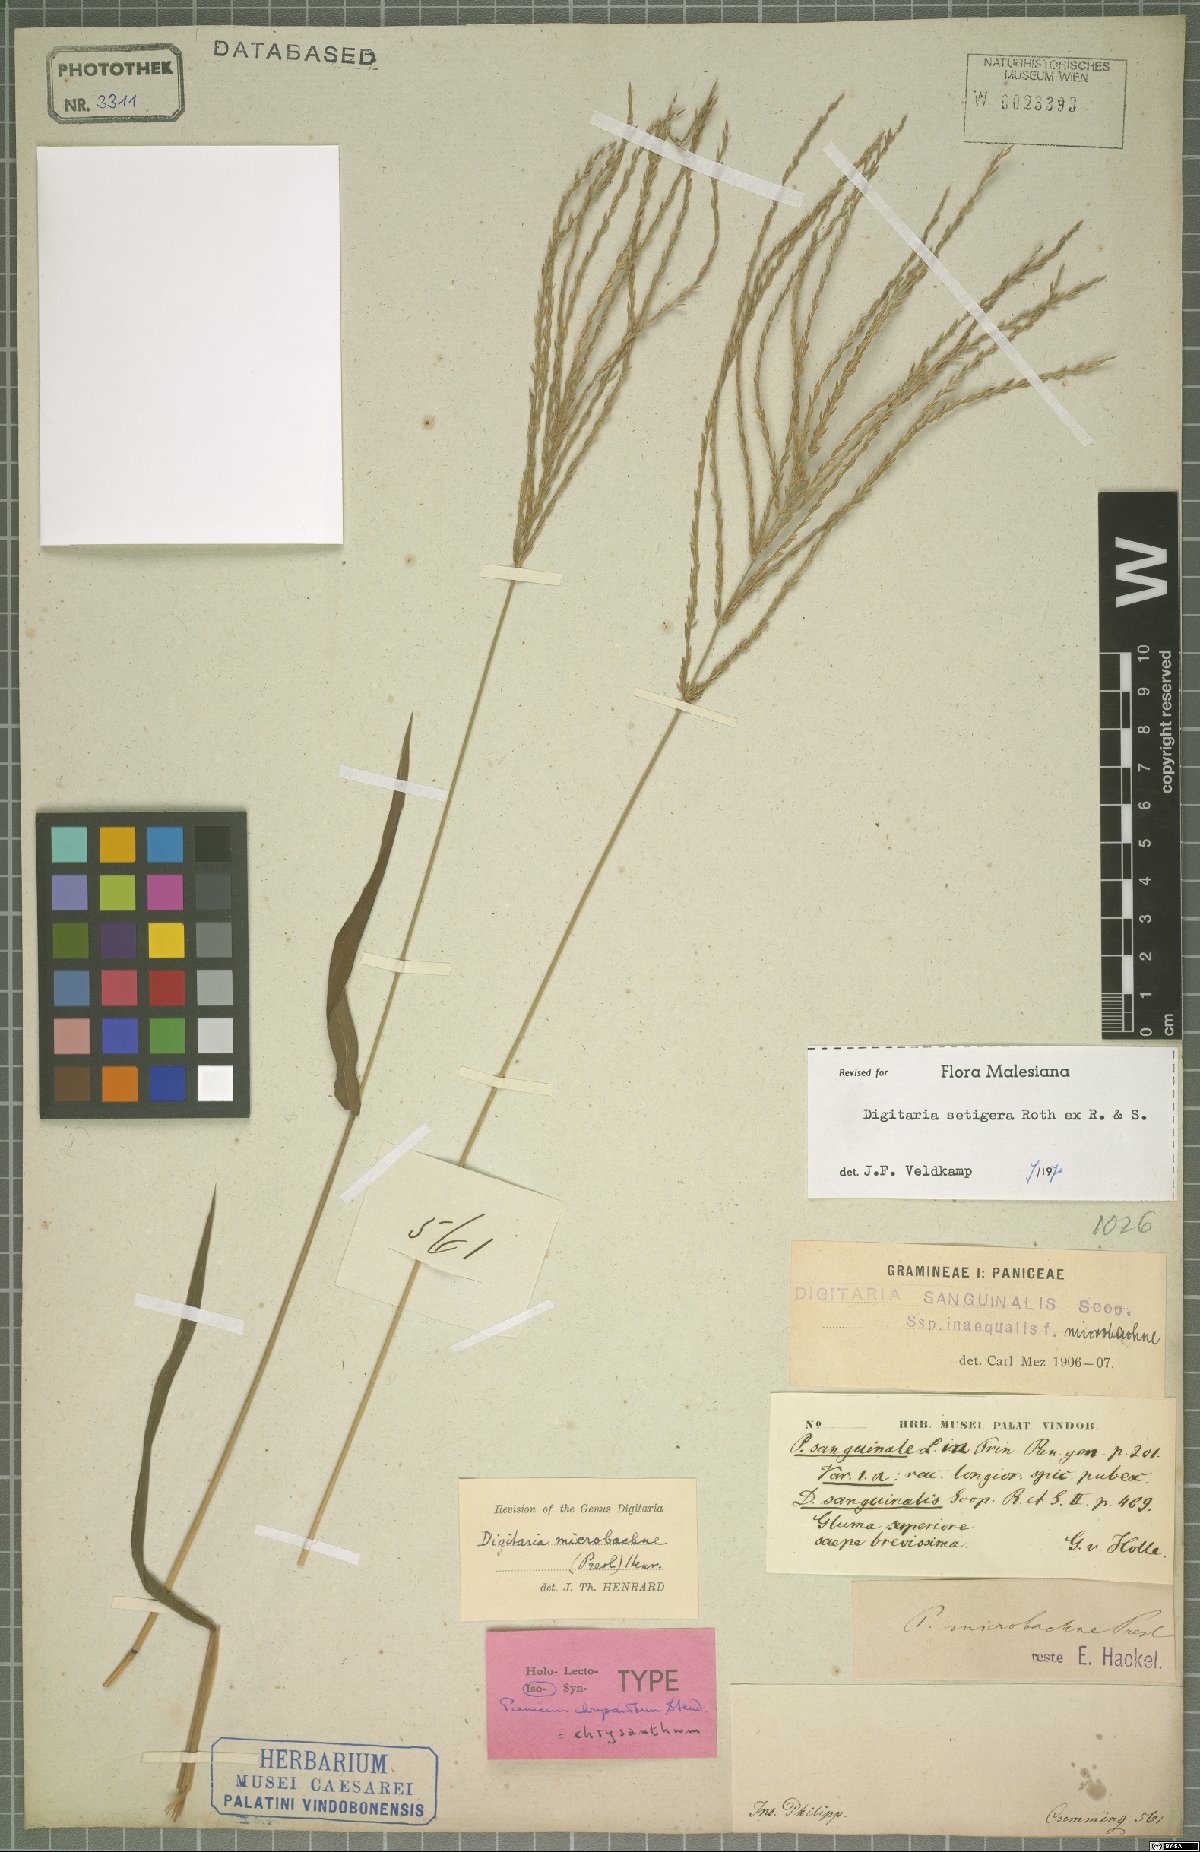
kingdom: Plantae
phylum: Tracheophyta
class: Liliopsida
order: Poales
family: Poaceae
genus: Digitaria
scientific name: Digitaria setigera
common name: East indian crabgrass
